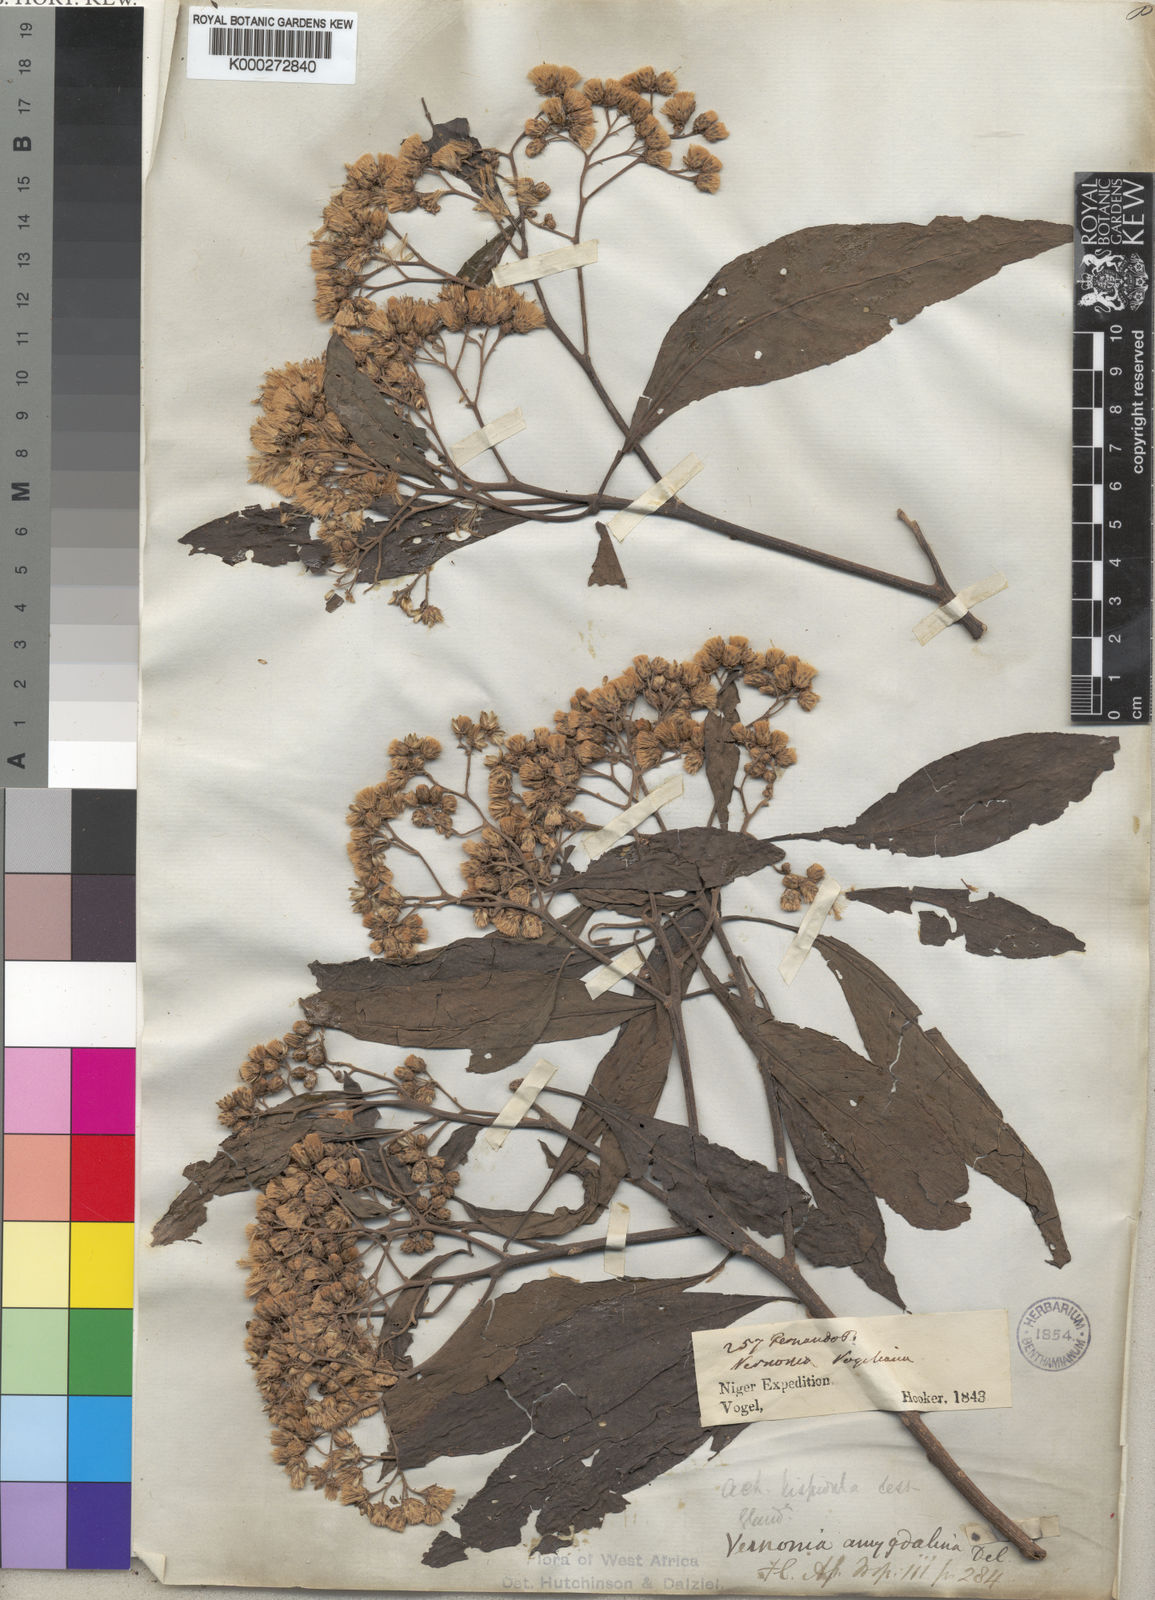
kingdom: Plantae
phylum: Tracheophyta
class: Magnoliopsida
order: Asterales
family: Asteraceae
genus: Gymnanthemum
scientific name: Gymnanthemum amygdalinum
